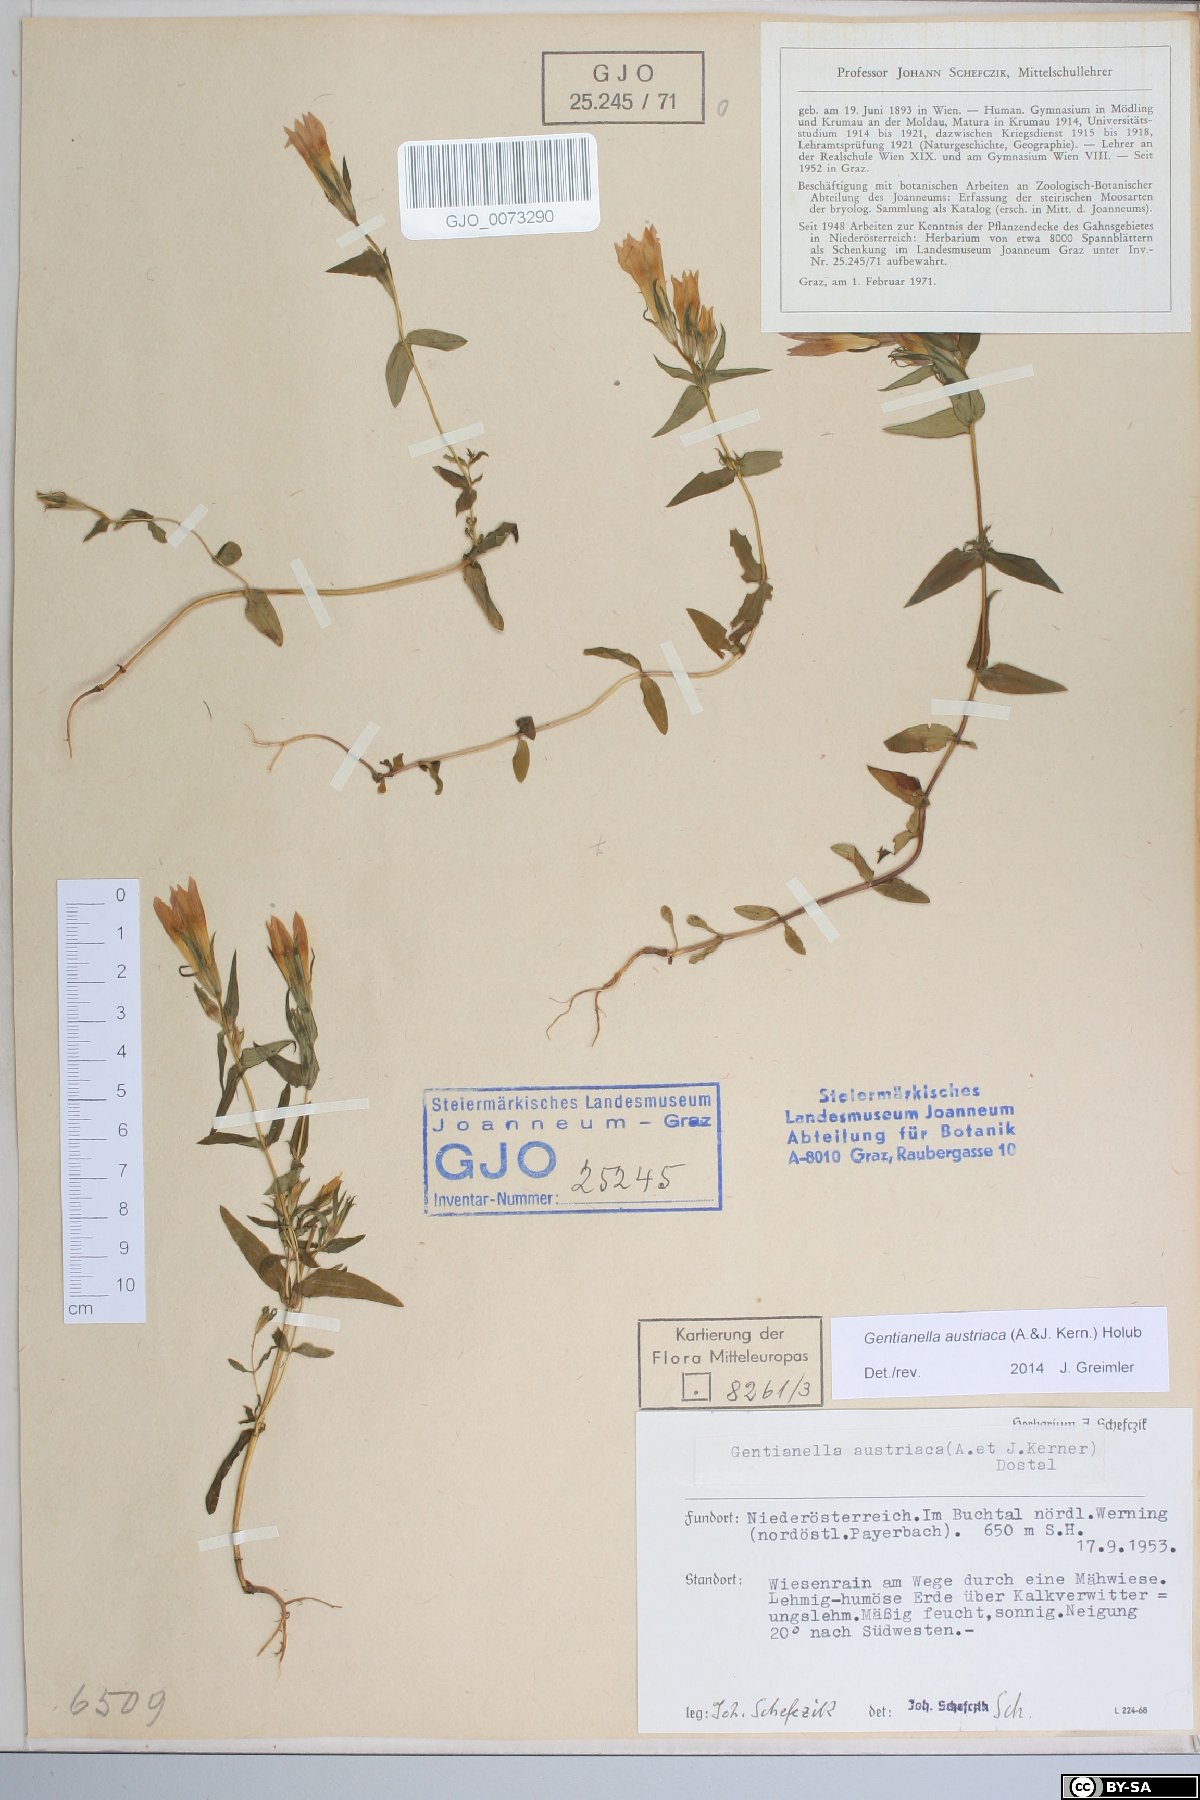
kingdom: Plantae
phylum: Tracheophyta
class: Magnoliopsida
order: Gentianales
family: Gentianaceae
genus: Gentianella
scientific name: Gentianella austriaca
